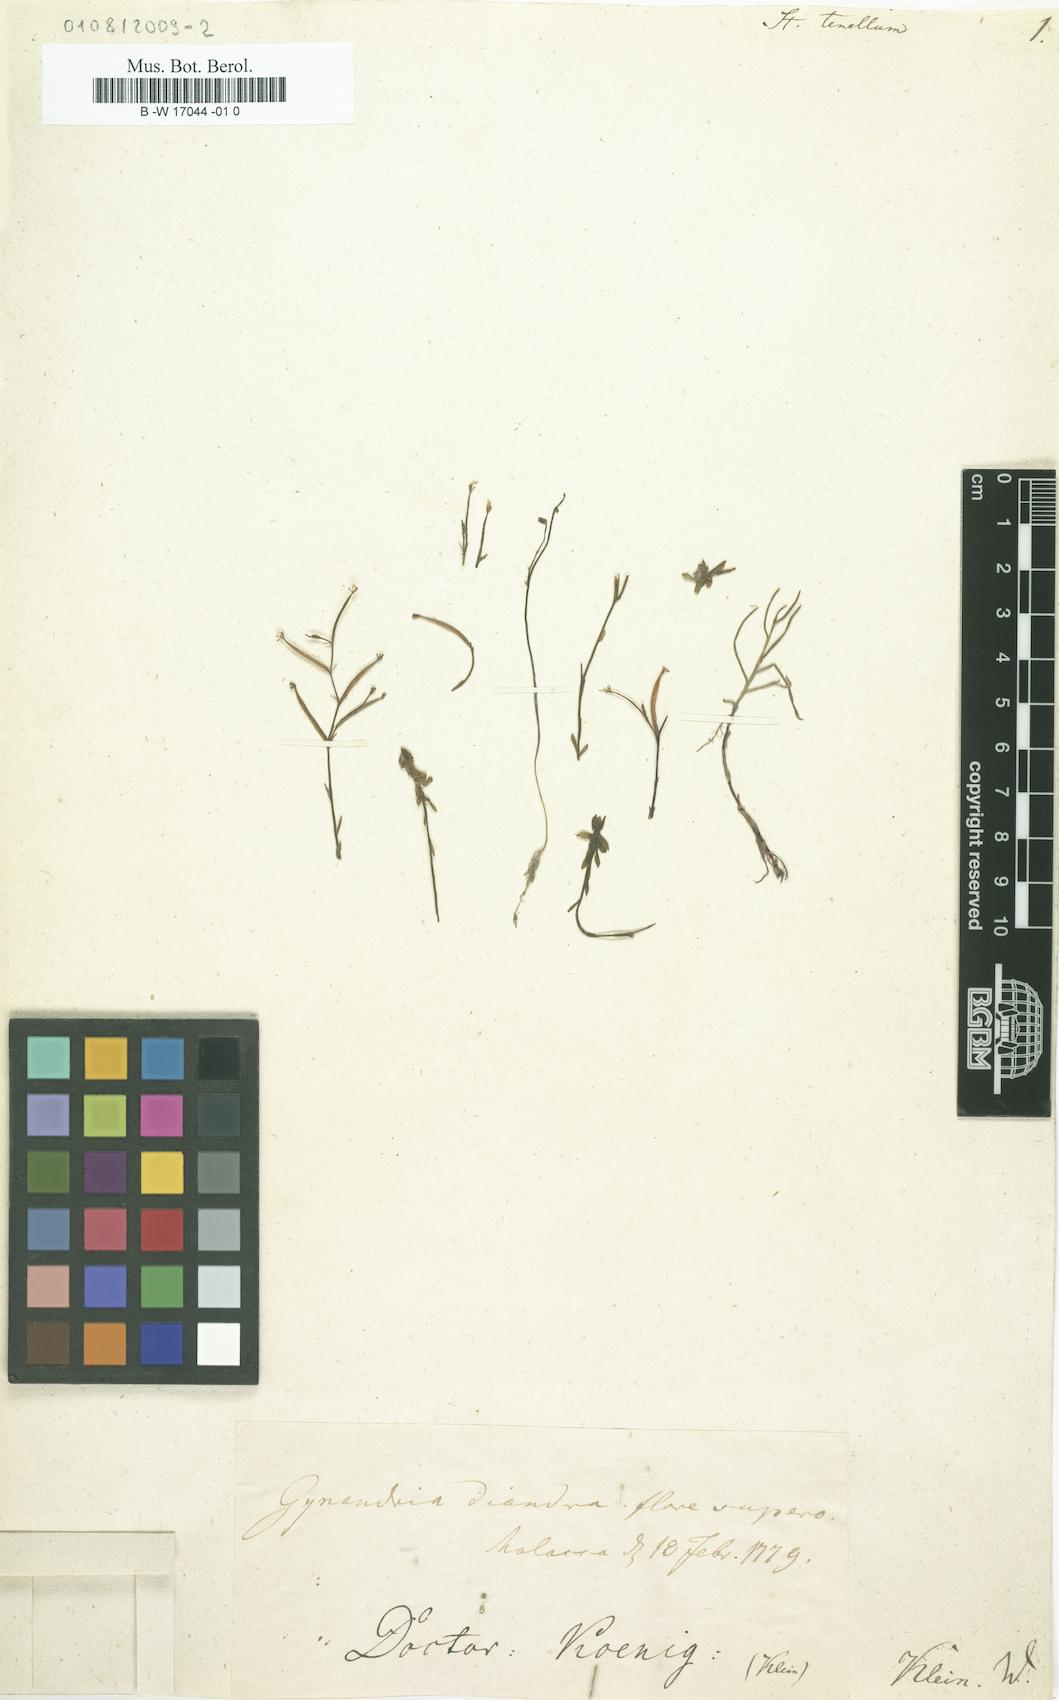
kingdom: Plantae
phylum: Tracheophyta
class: Magnoliopsida
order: Asterales
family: Stylidiaceae
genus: Stylidium
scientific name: Stylidium tenellum
